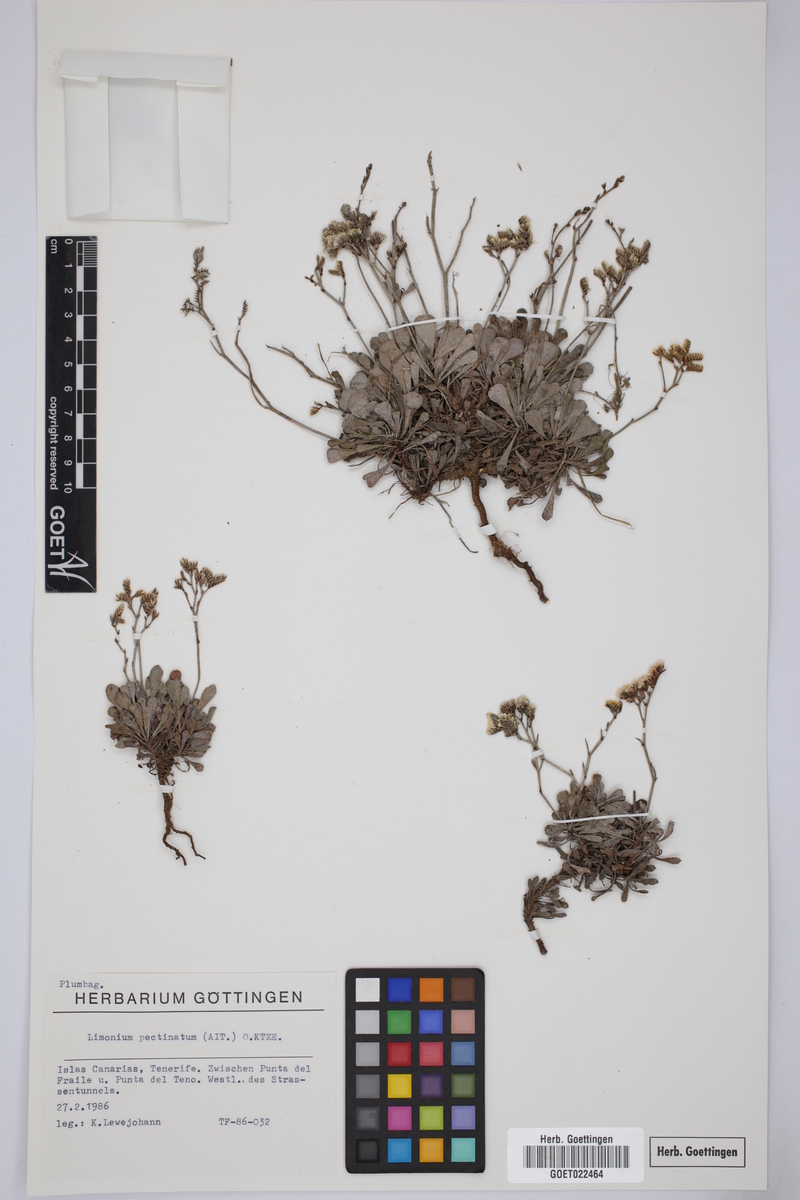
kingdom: Plantae
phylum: Tracheophyta
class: Magnoliopsida
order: Caryophyllales
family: Plumbaginaceae
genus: Limonium
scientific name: Limonium pectinatum
